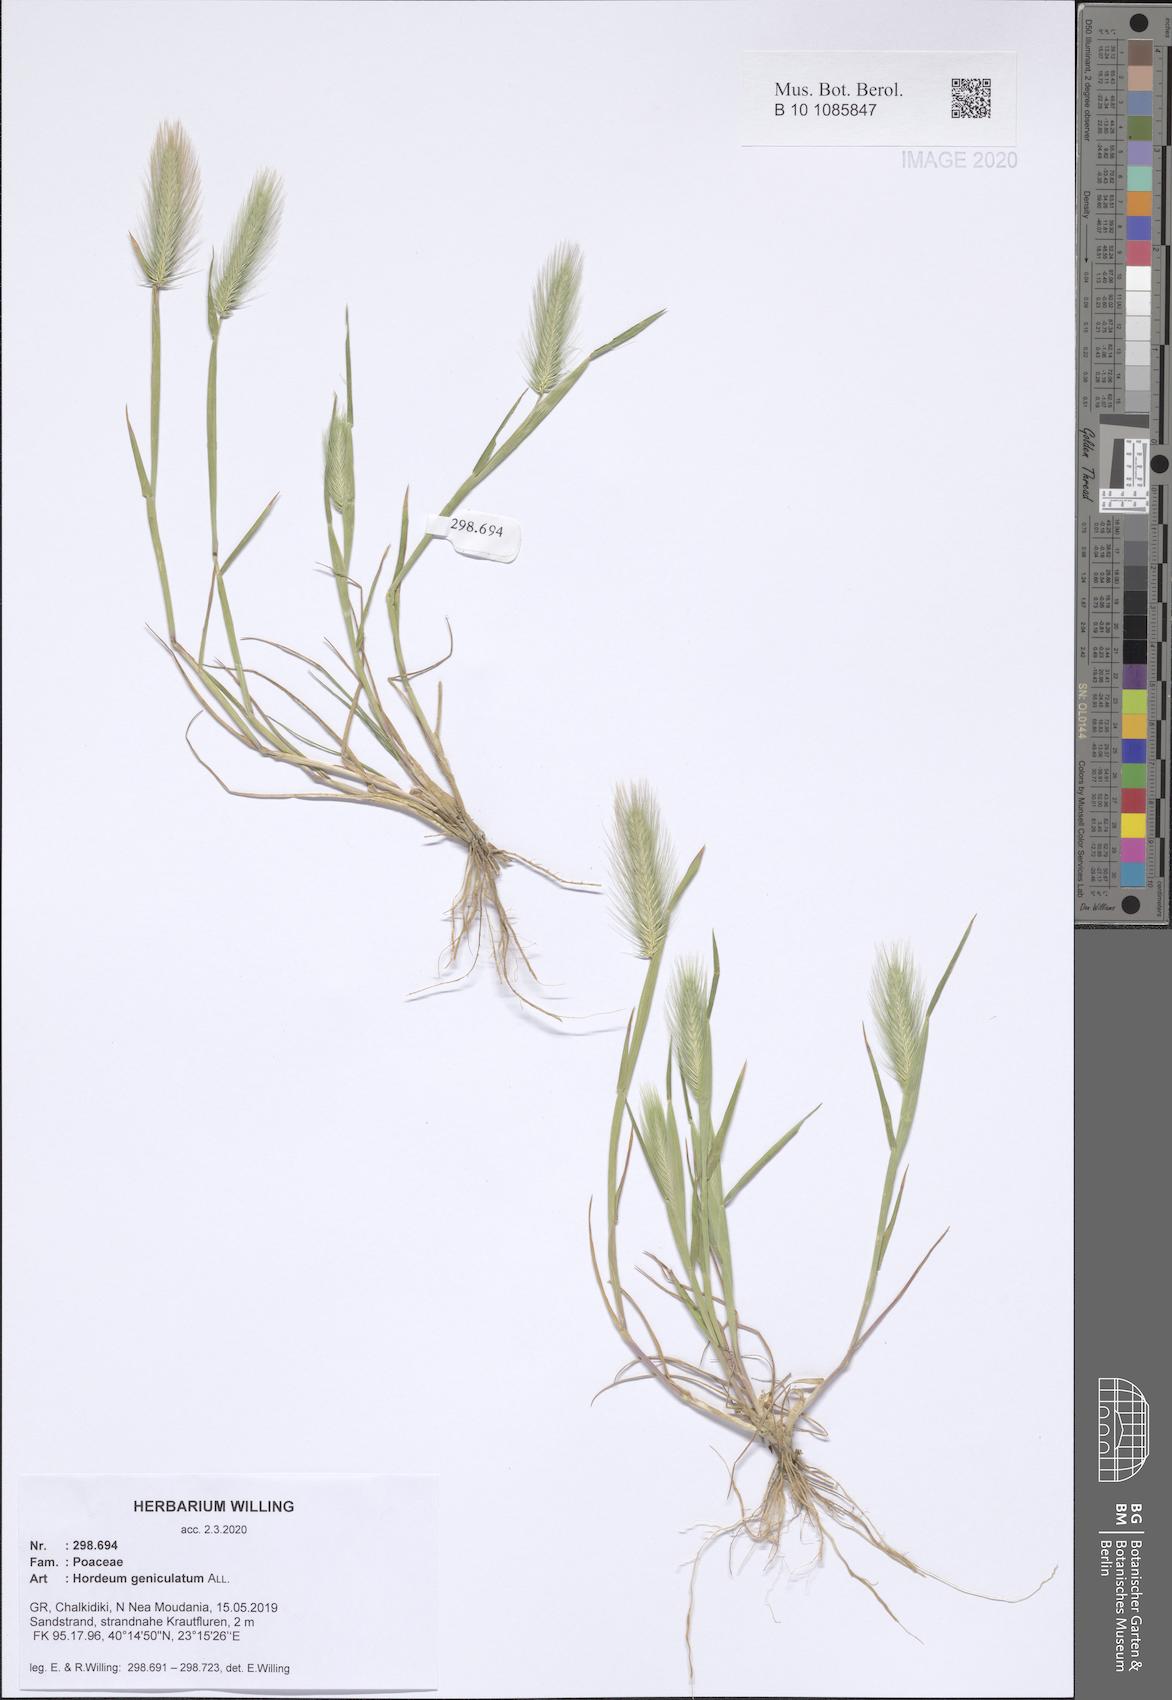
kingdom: Plantae
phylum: Tracheophyta
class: Liliopsida
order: Poales
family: Poaceae
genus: Hordeum
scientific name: Hordeum marinum
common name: Sea barley
